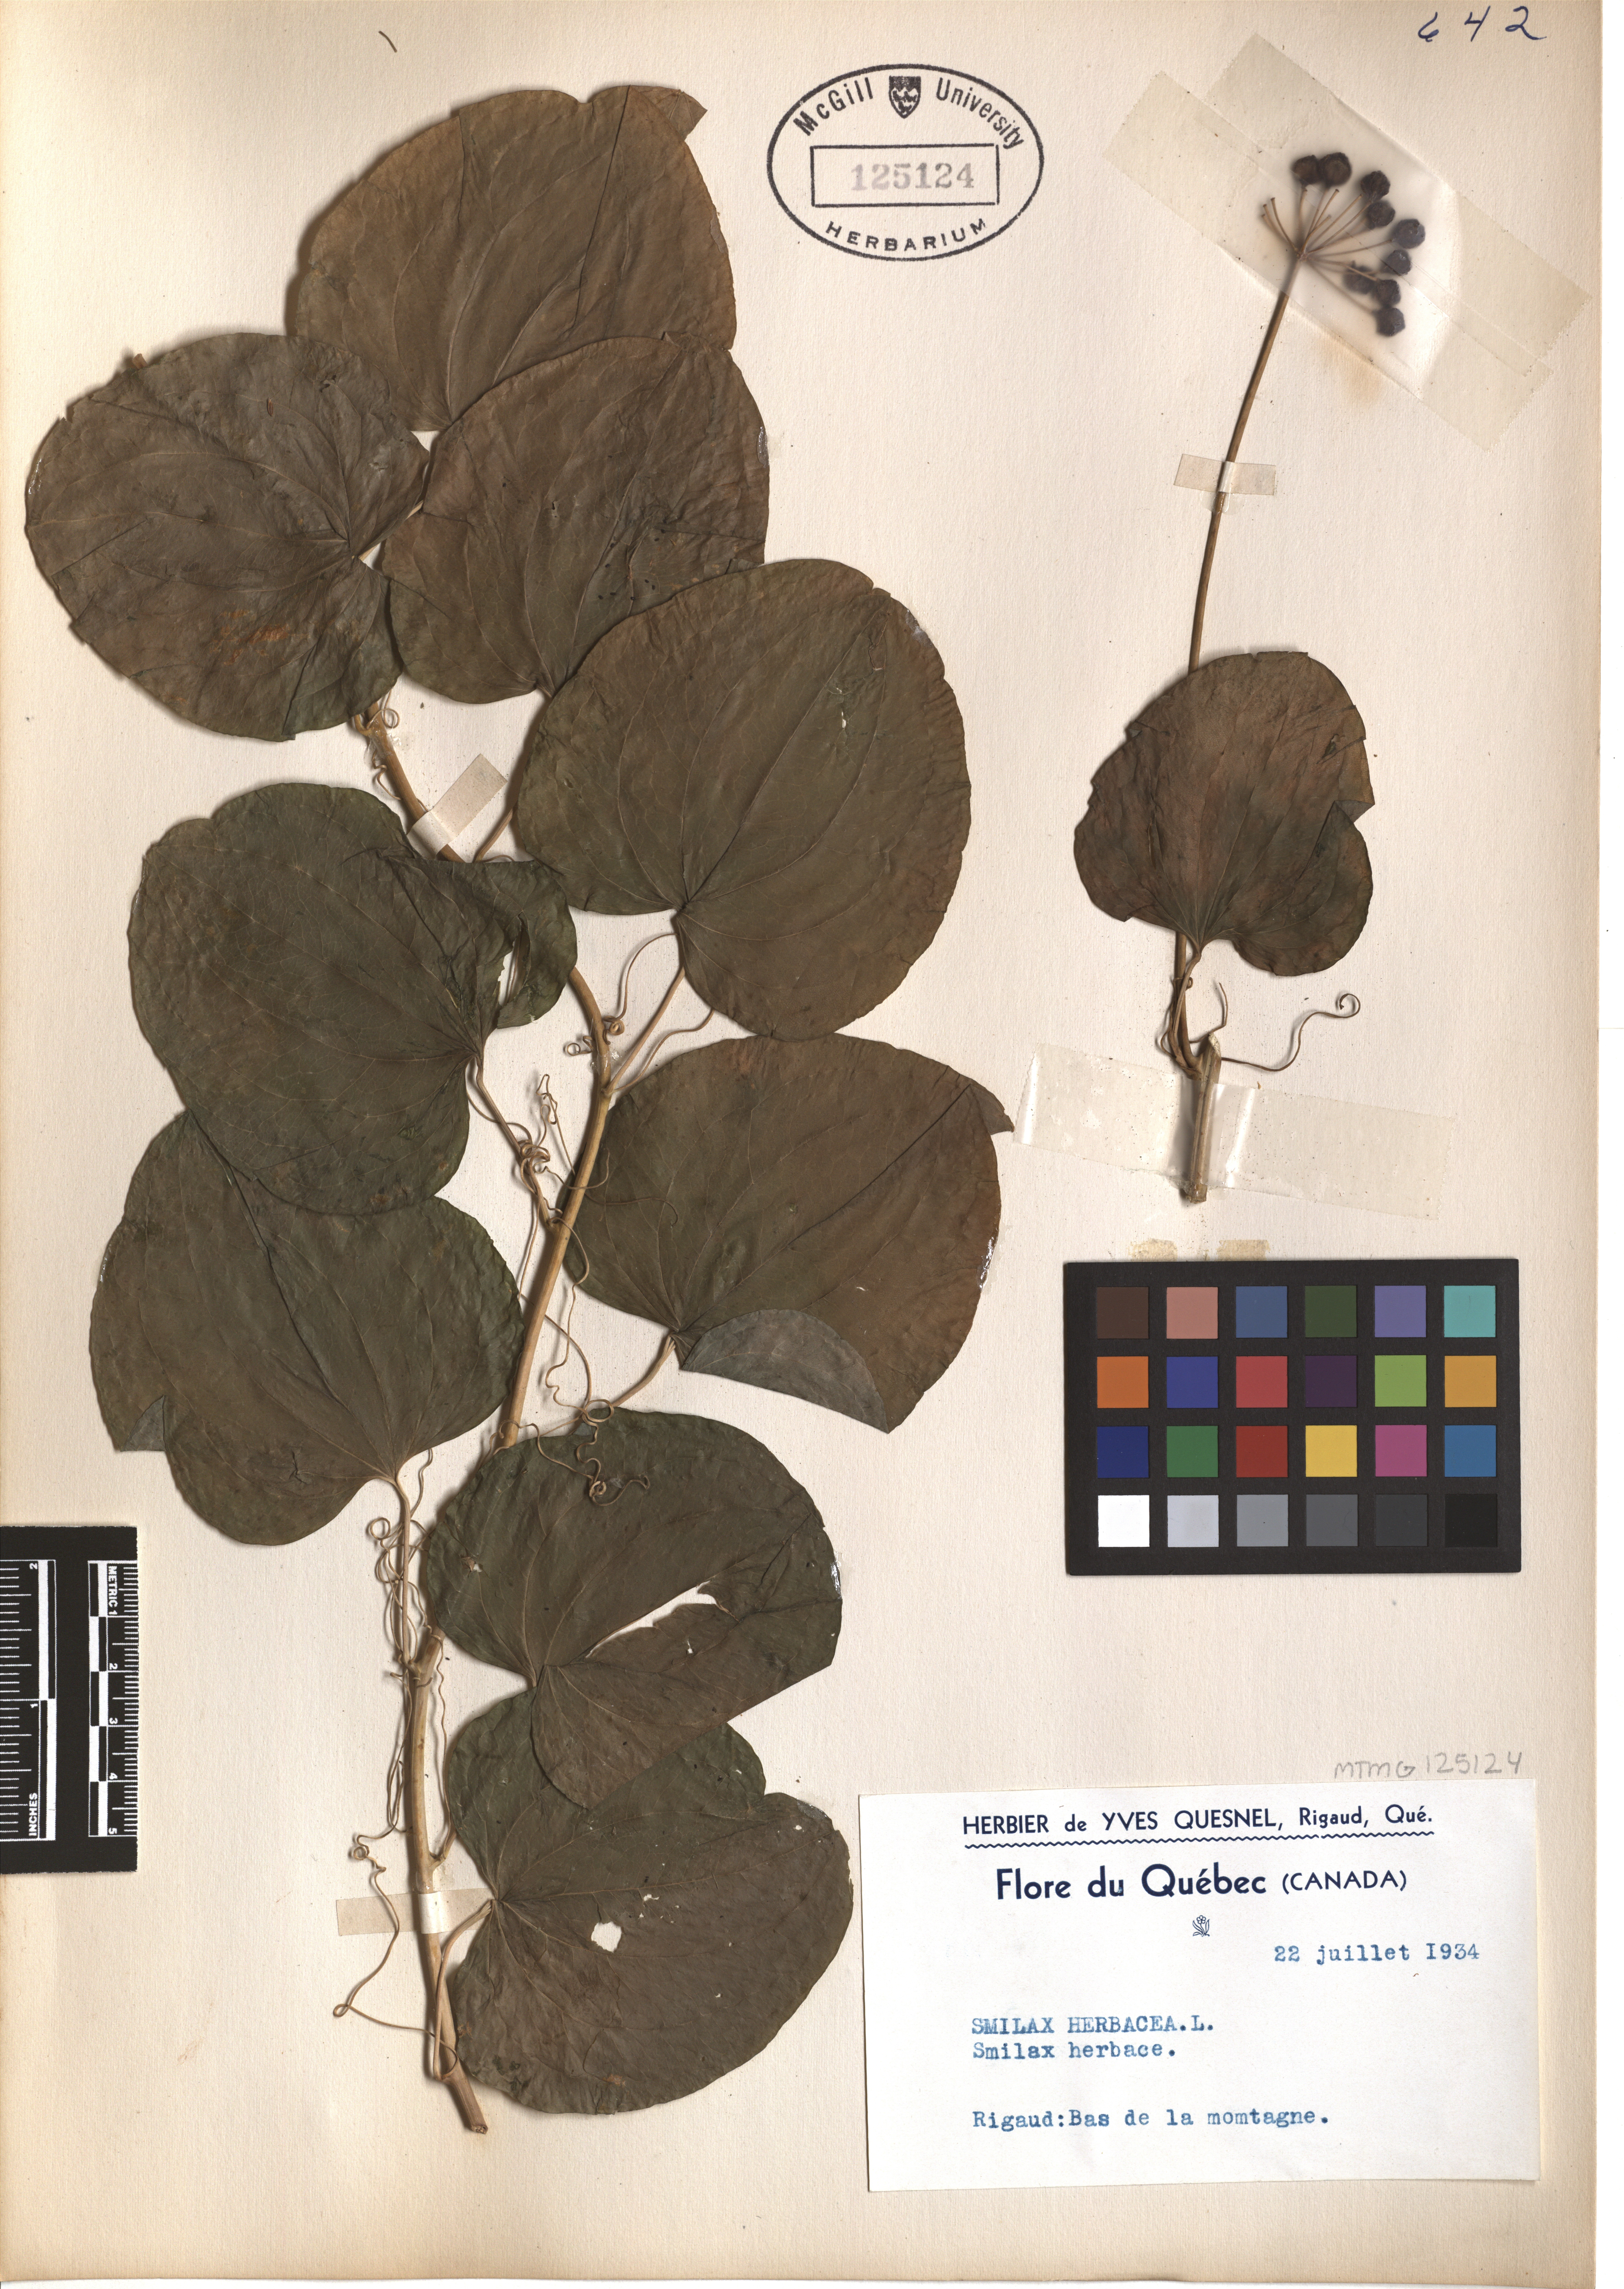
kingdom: Plantae
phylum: Tracheophyta
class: Liliopsida
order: Liliales
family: Smilacaceae
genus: Smilax
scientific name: Smilax herbacea
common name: Jacob's-ladder
